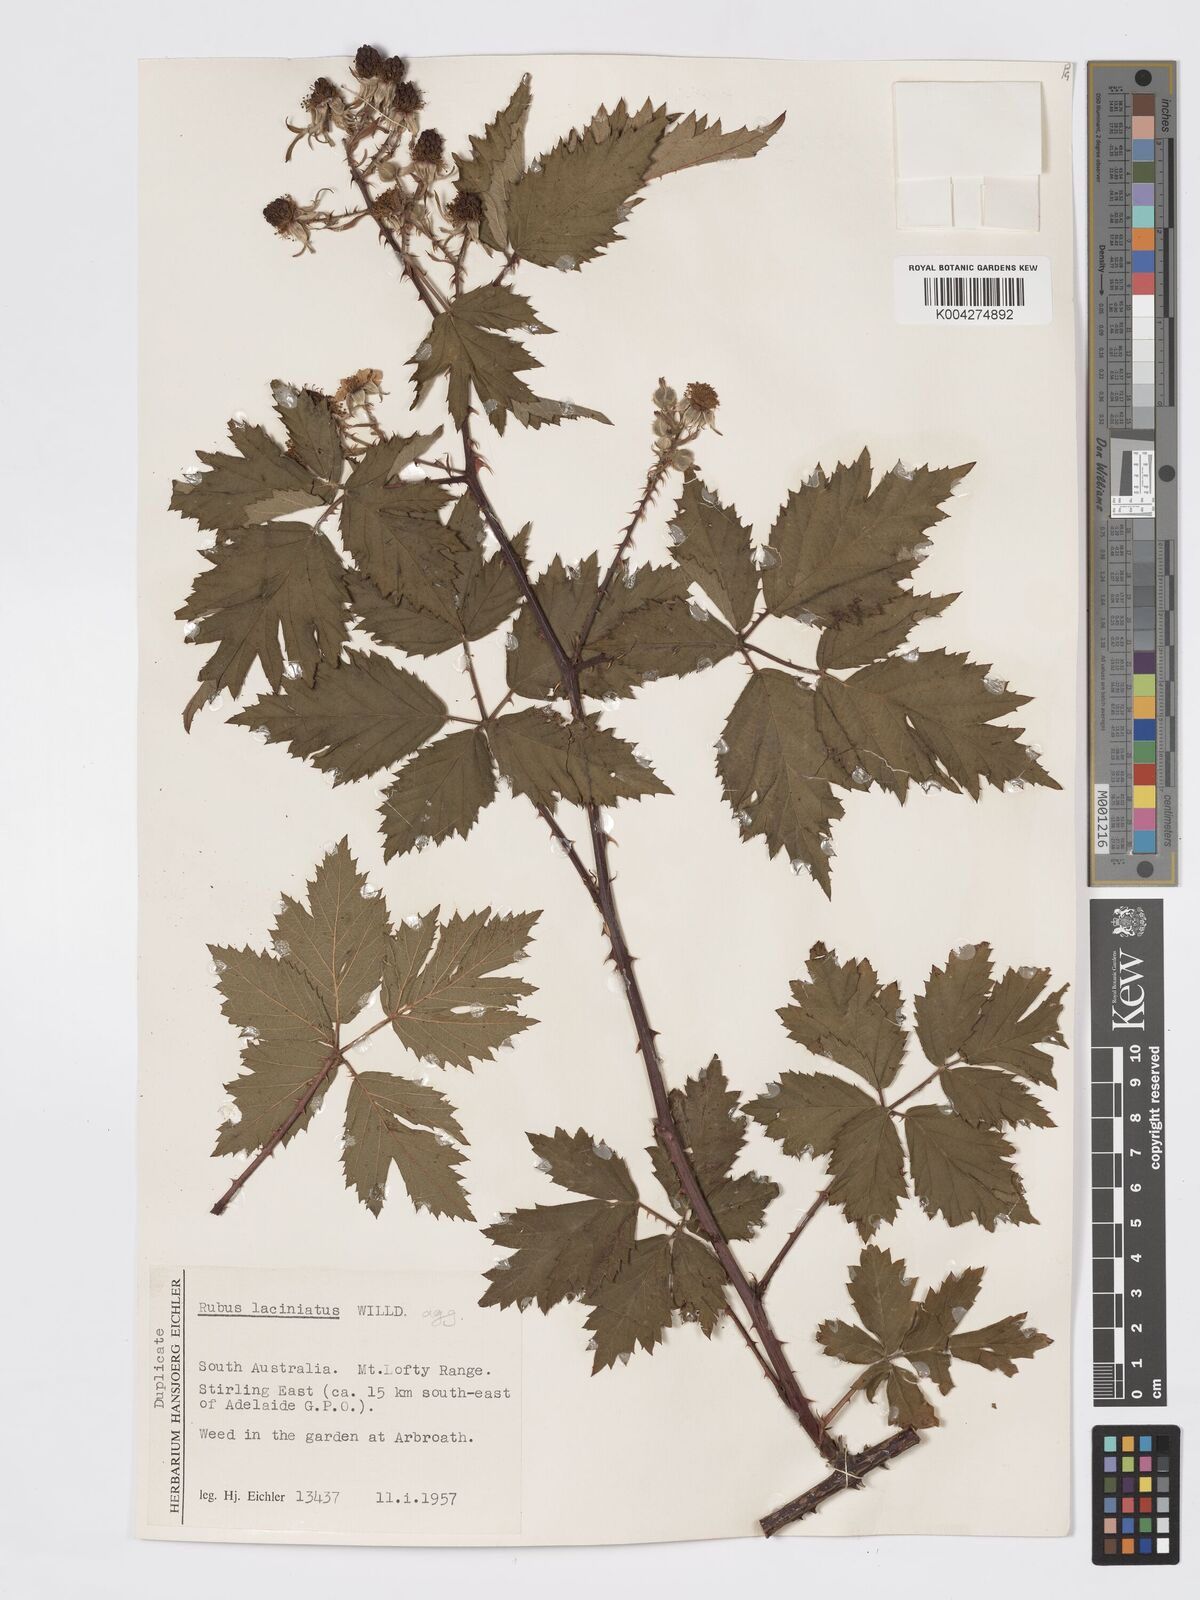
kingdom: Plantae
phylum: Tracheophyta
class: Magnoliopsida
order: Rosales
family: Rosaceae
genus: Rubus
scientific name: Rubus laciniatus
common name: Evergreen blackberry
